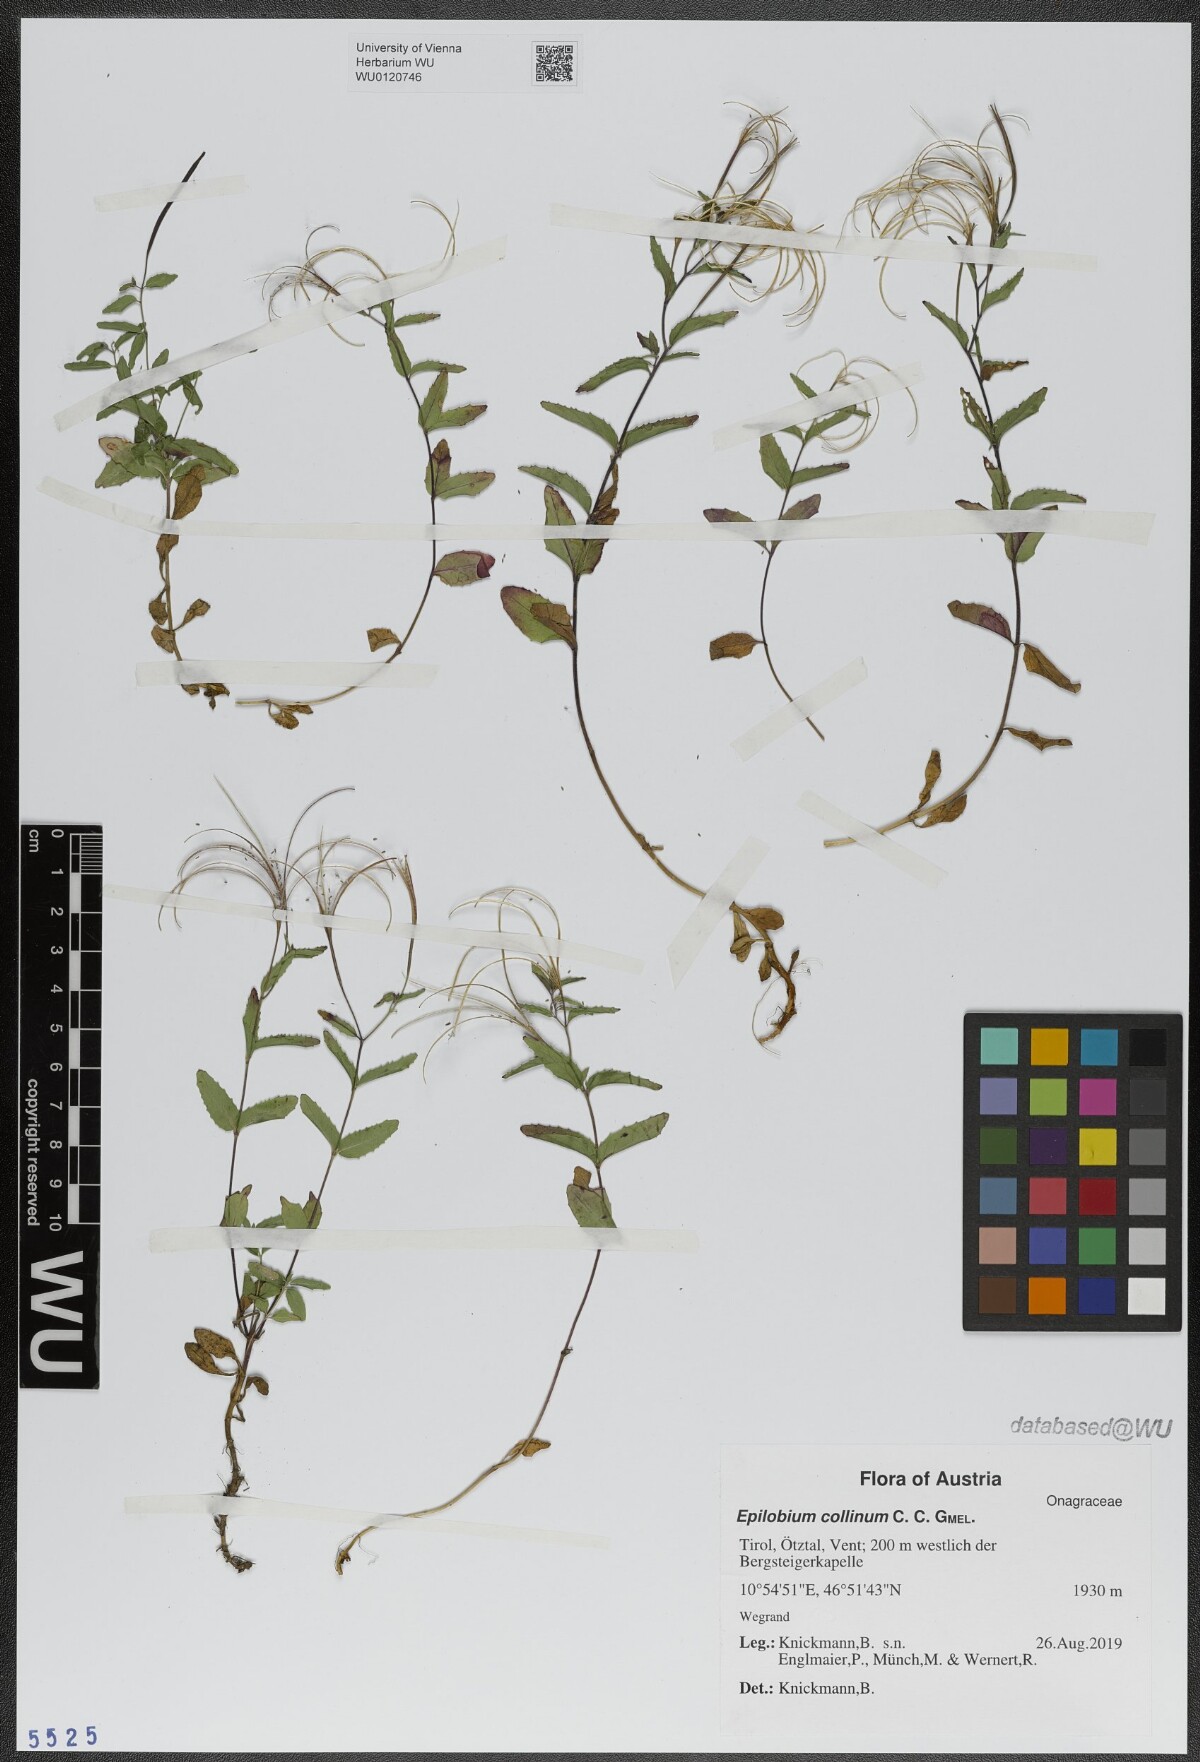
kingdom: Plantae
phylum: Tracheophyta
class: Magnoliopsida
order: Myrtales
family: Onagraceae
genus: Epilobium
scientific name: Epilobium collinum
